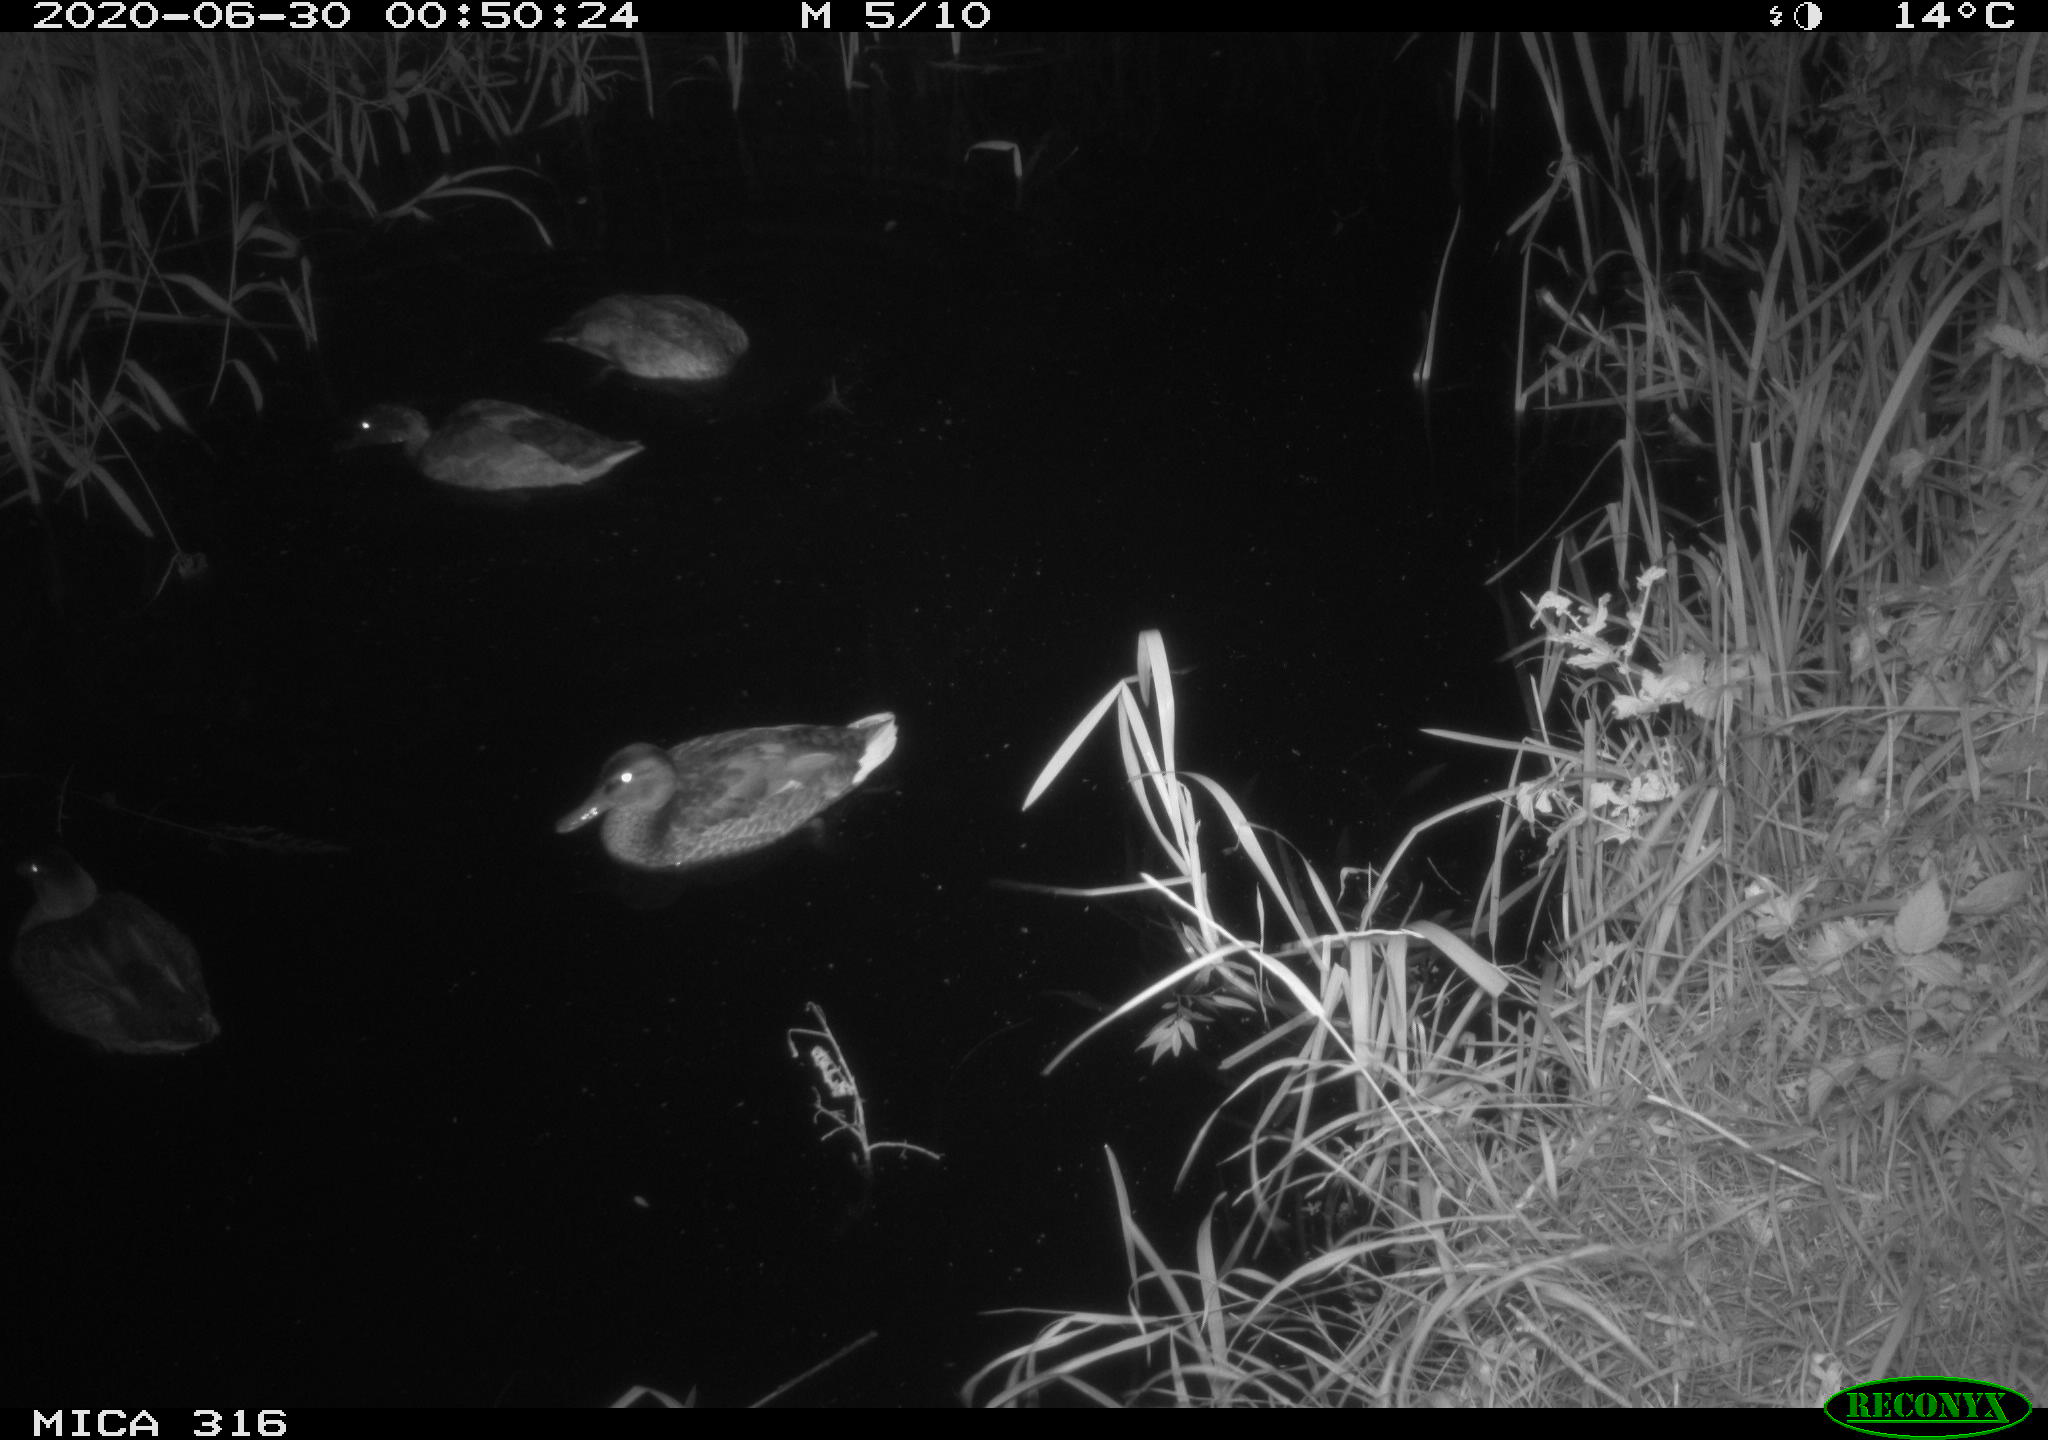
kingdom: Animalia
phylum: Chordata
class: Aves
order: Anseriformes
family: Anatidae
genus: Anas
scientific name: Anas platyrhynchos
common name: Mallard
